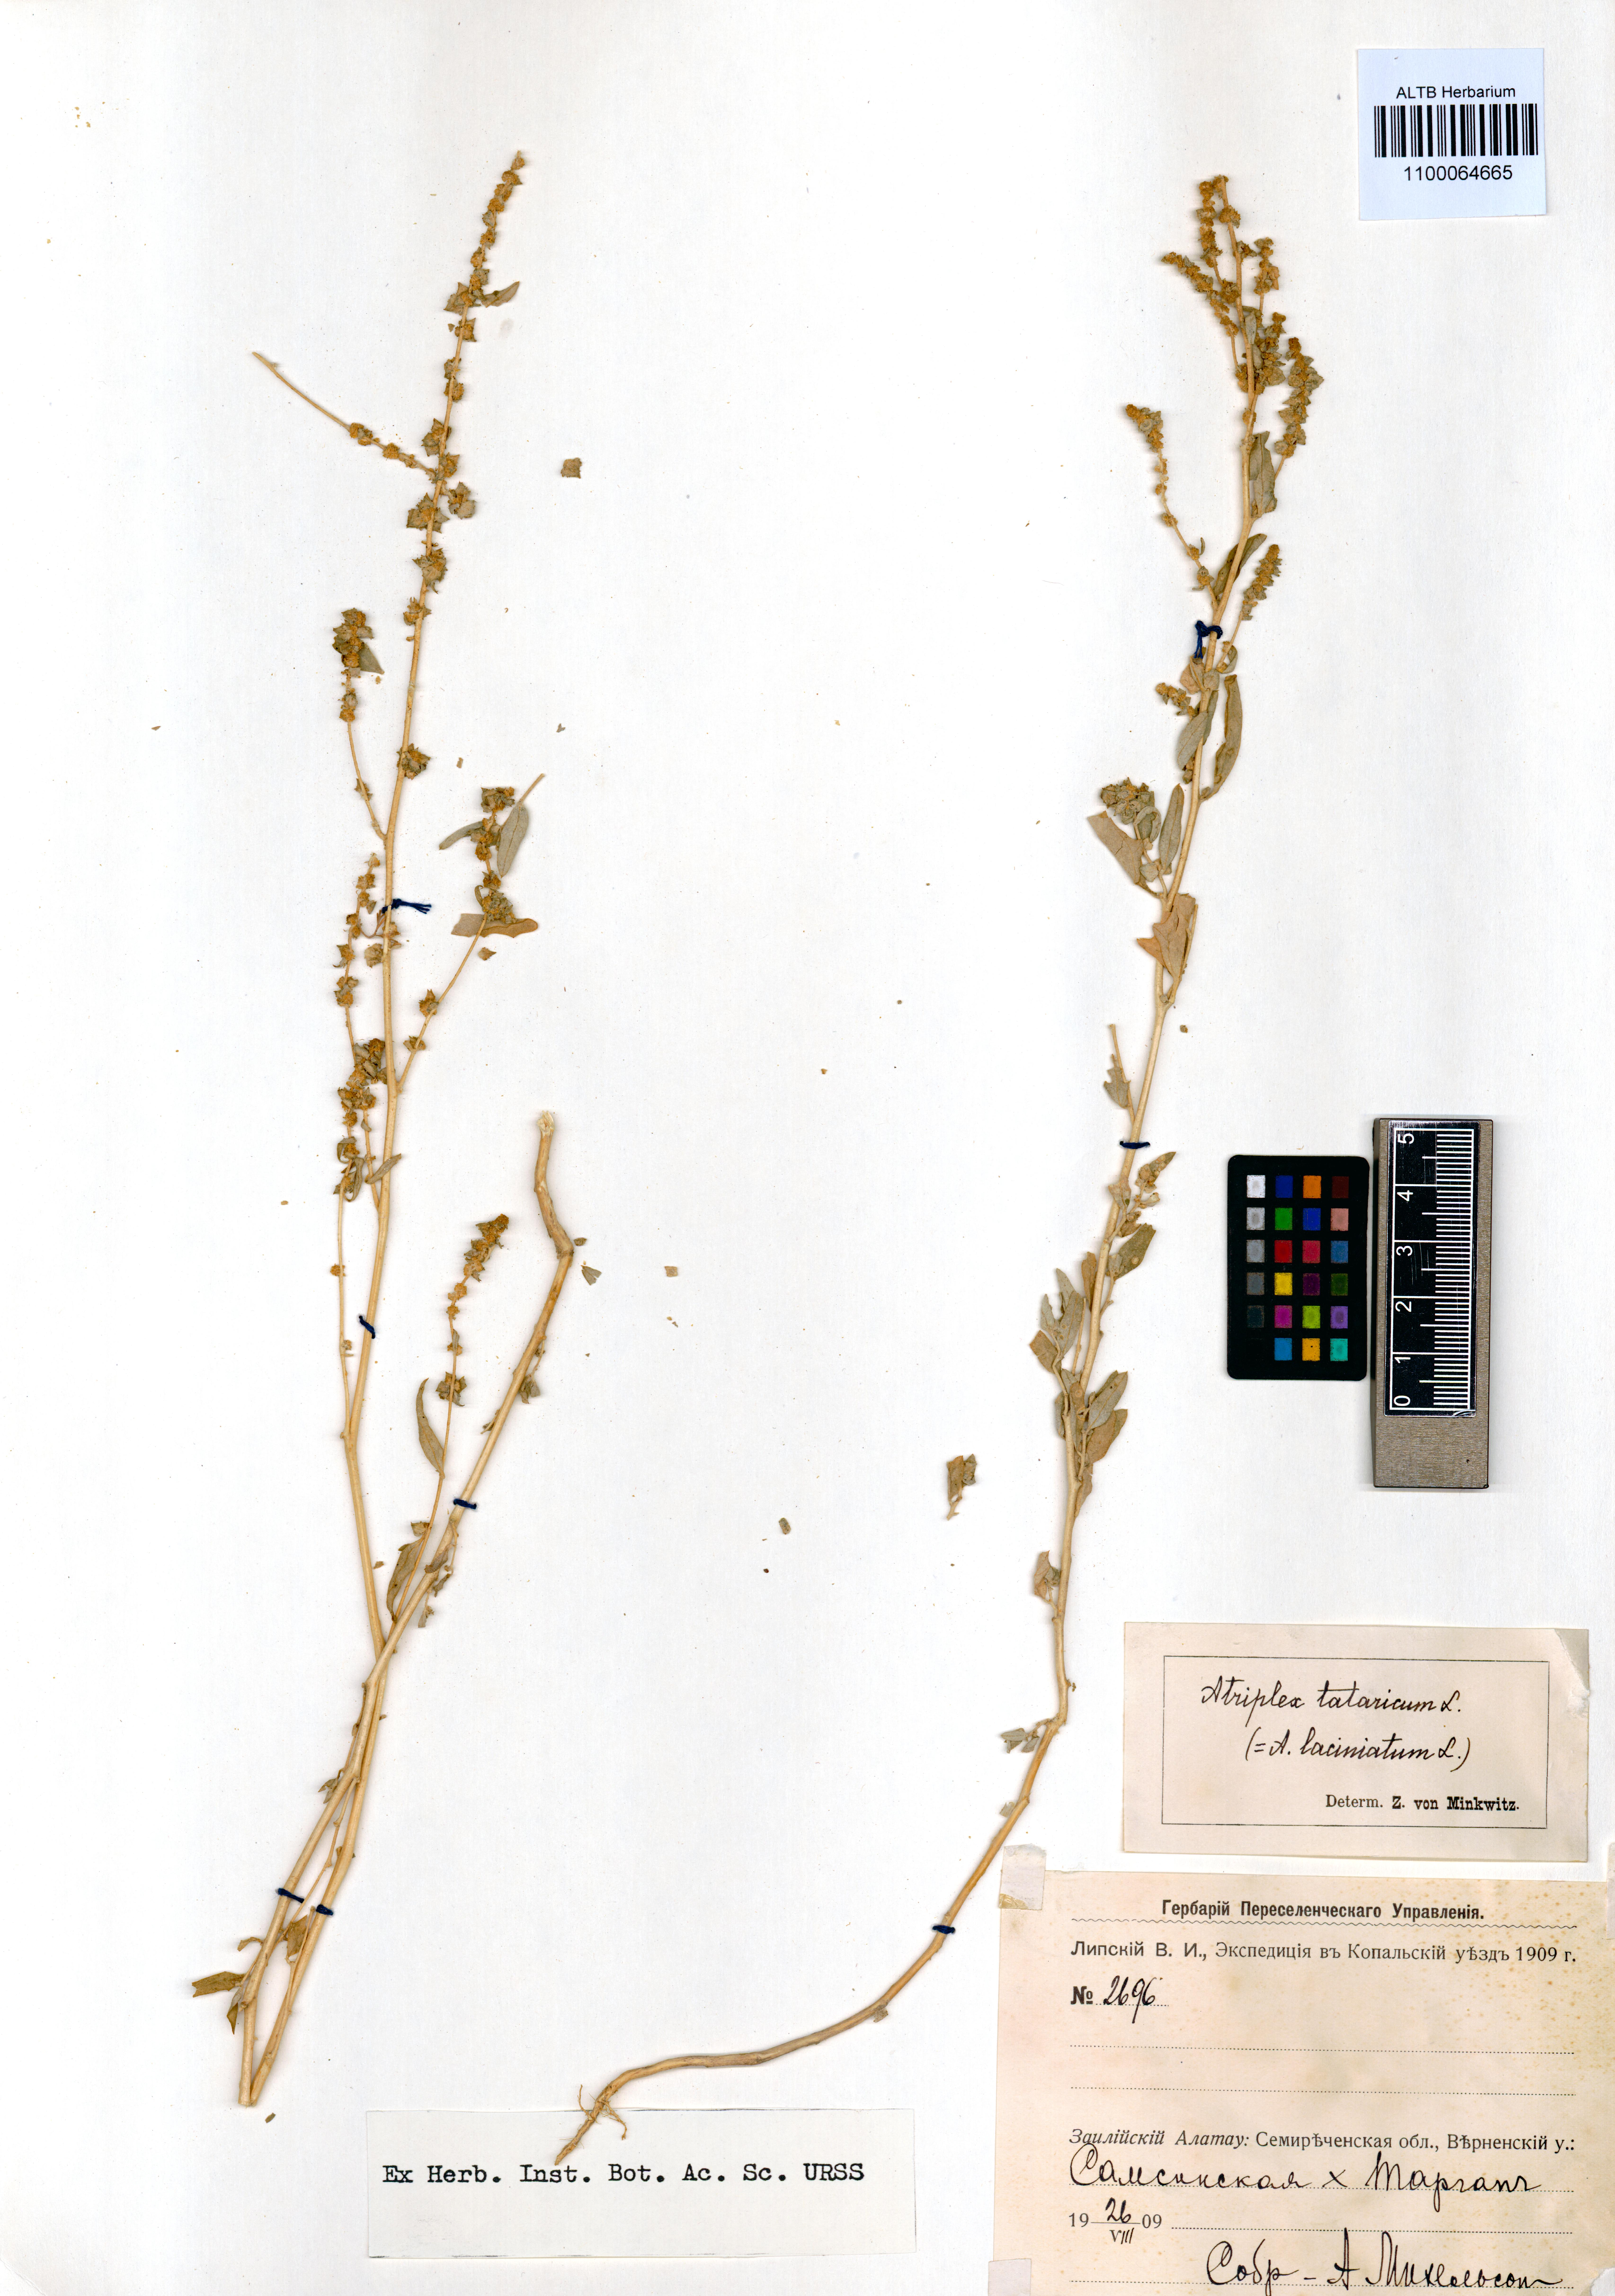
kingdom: Plantae
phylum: Tracheophyta
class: Magnoliopsida
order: Caryophyllales
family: Amaranthaceae
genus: Atriplex
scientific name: Atriplex tatarica
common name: Tatarian orache
